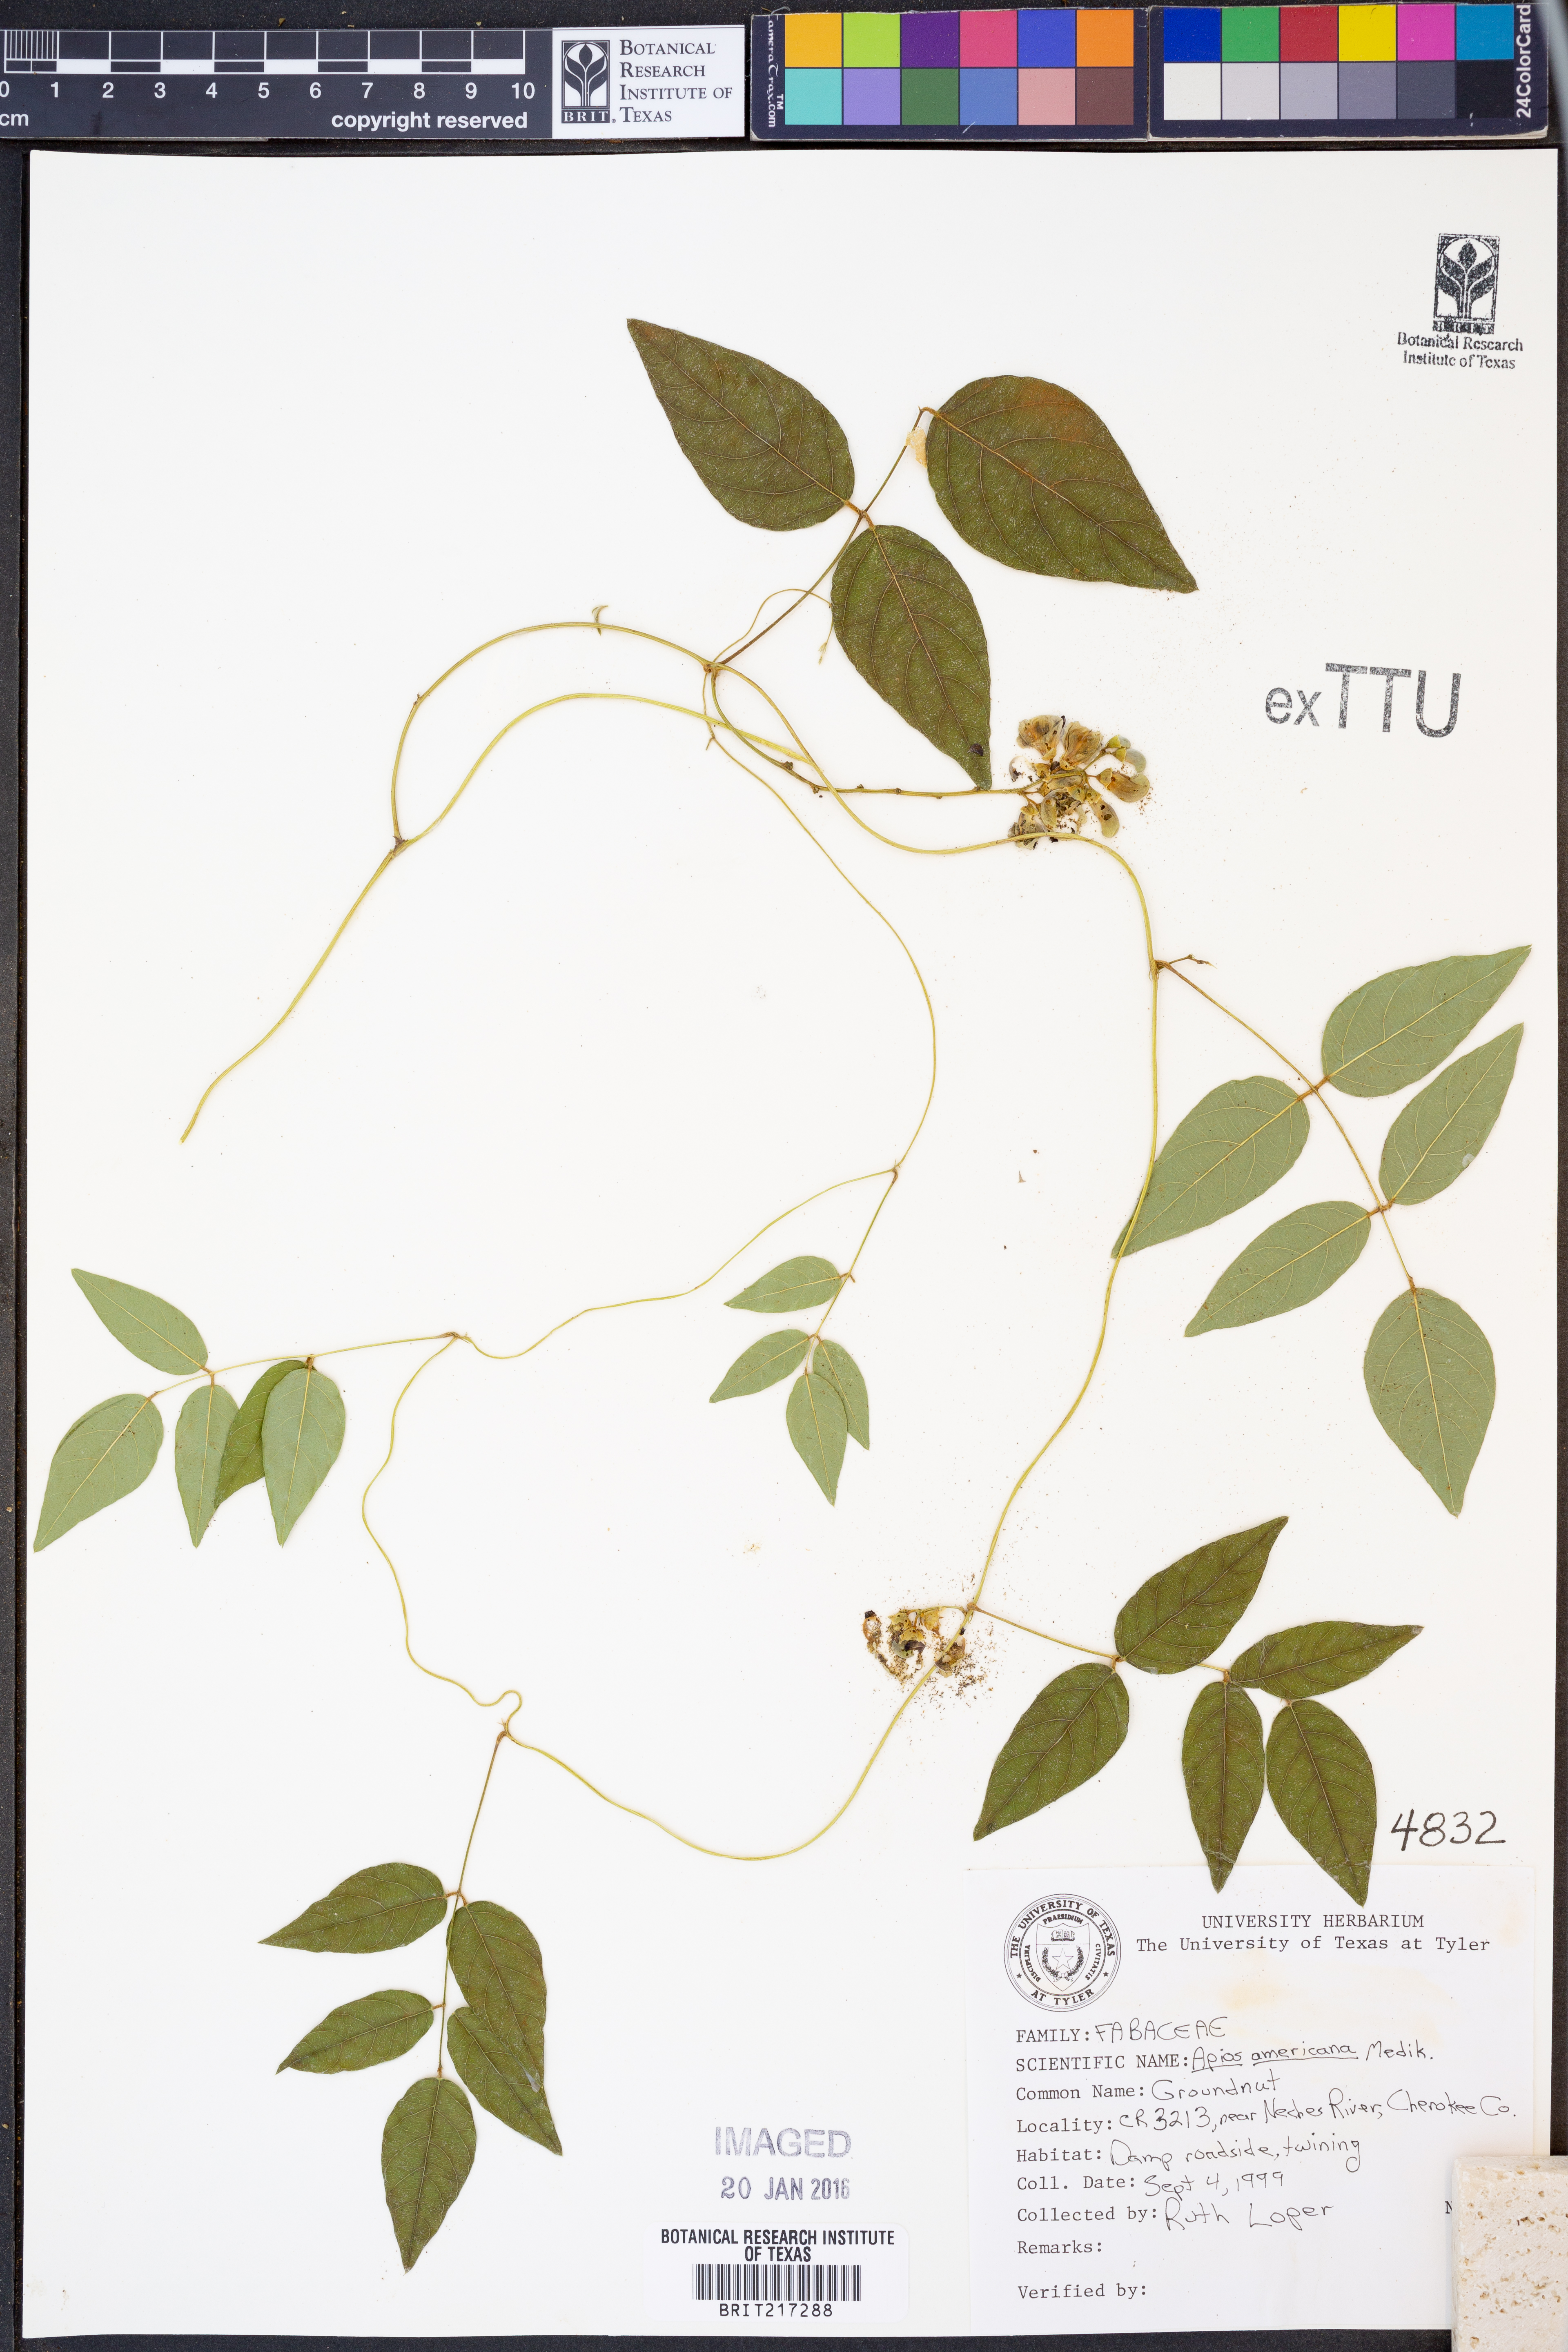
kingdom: Plantae
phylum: Tracheophyta
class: Magnoliopsida
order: Fabales
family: Fabaceae
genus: Apios
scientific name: Apios americana
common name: American potato-bean
